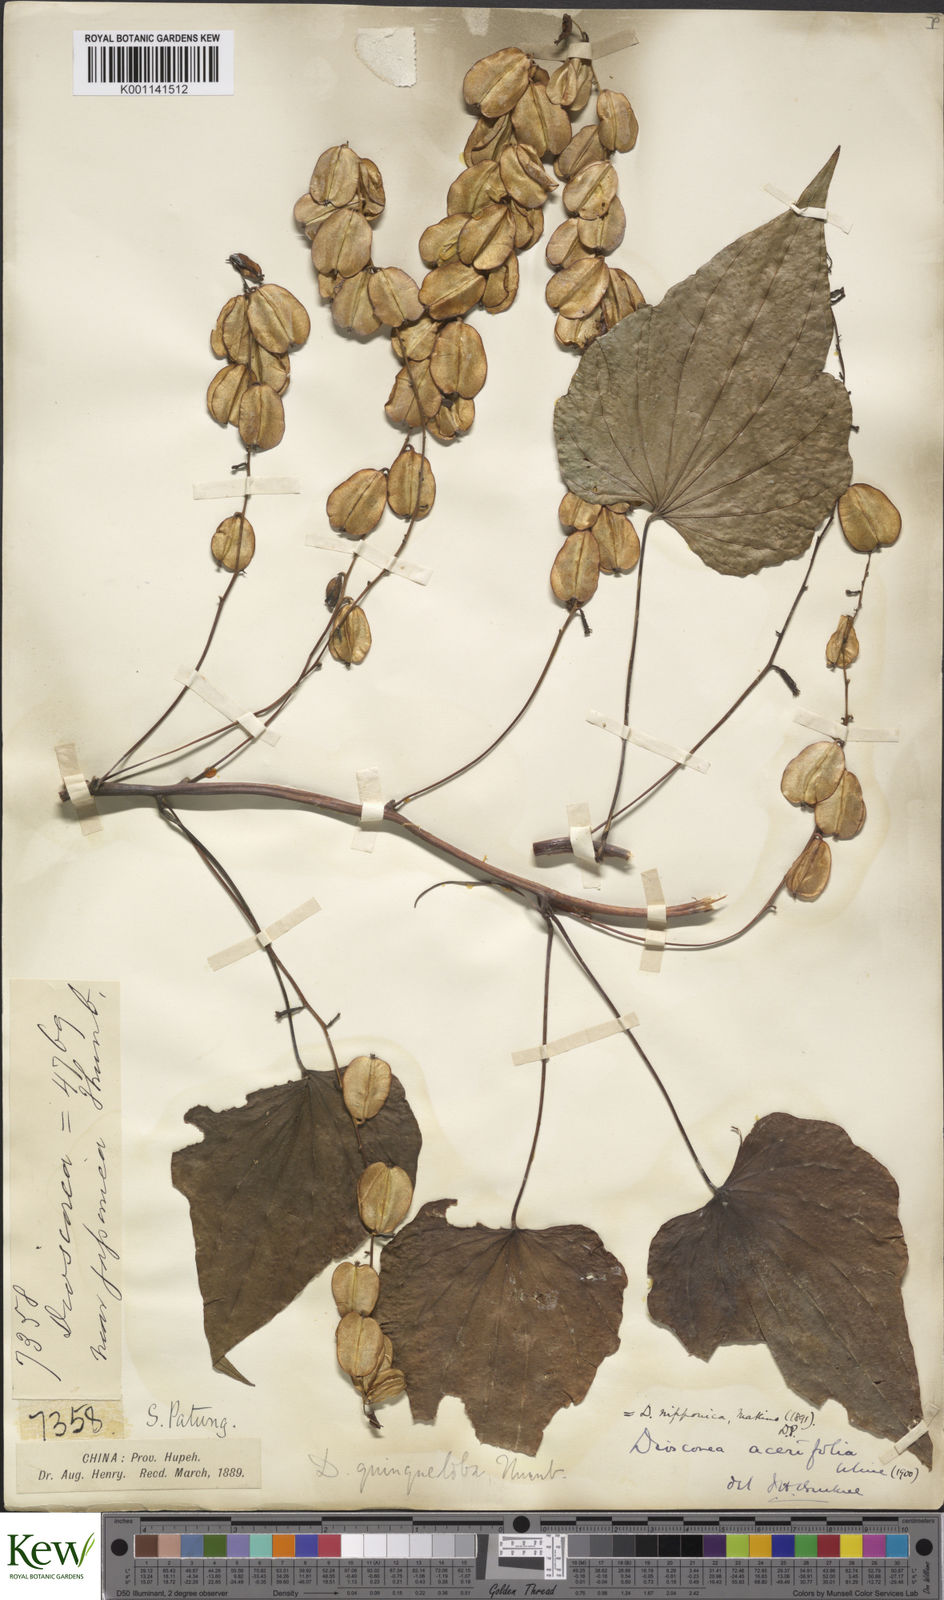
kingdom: Plantae
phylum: Tracheophyta
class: Liliopsida
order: Dioscoreales
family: Dioscoreaceae
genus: Dioscorea
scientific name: Dioscorea nipponica
